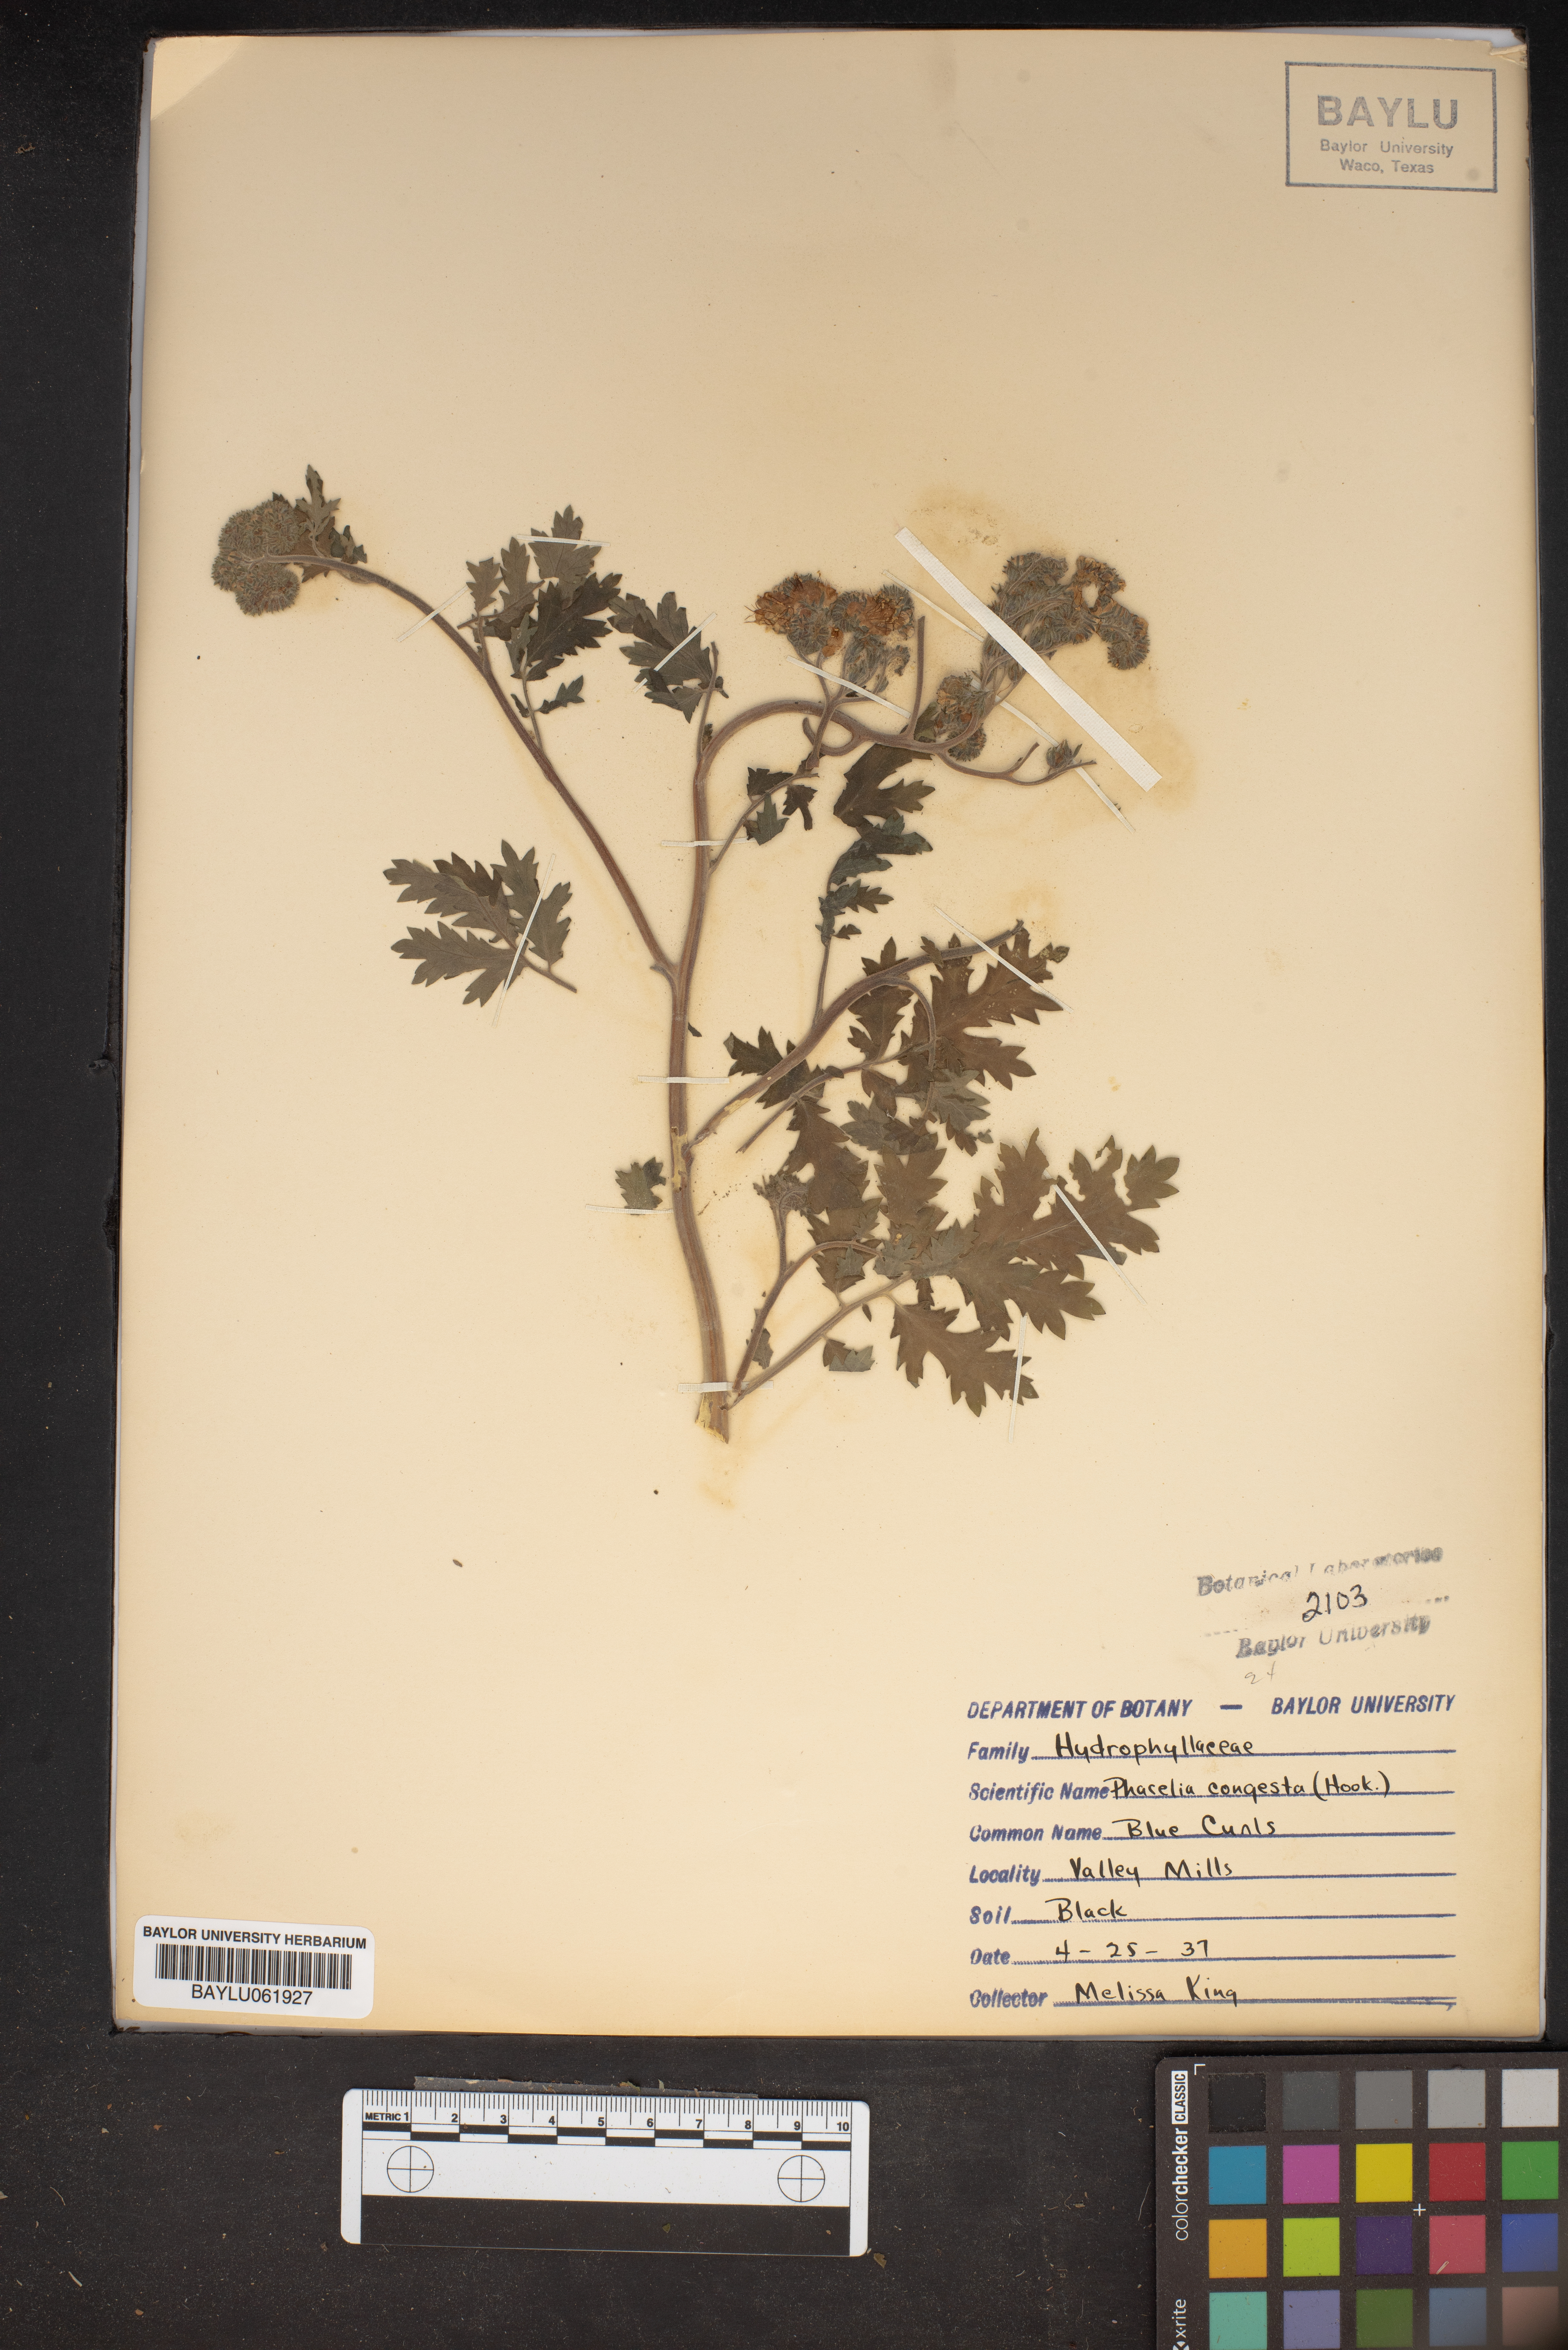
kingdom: Plantae
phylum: Tracheophyta
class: Magnoliopsida
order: Boraginales
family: Hydrophyllaceae
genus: Phacelia
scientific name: Phacelia congesta
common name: Blue curls
